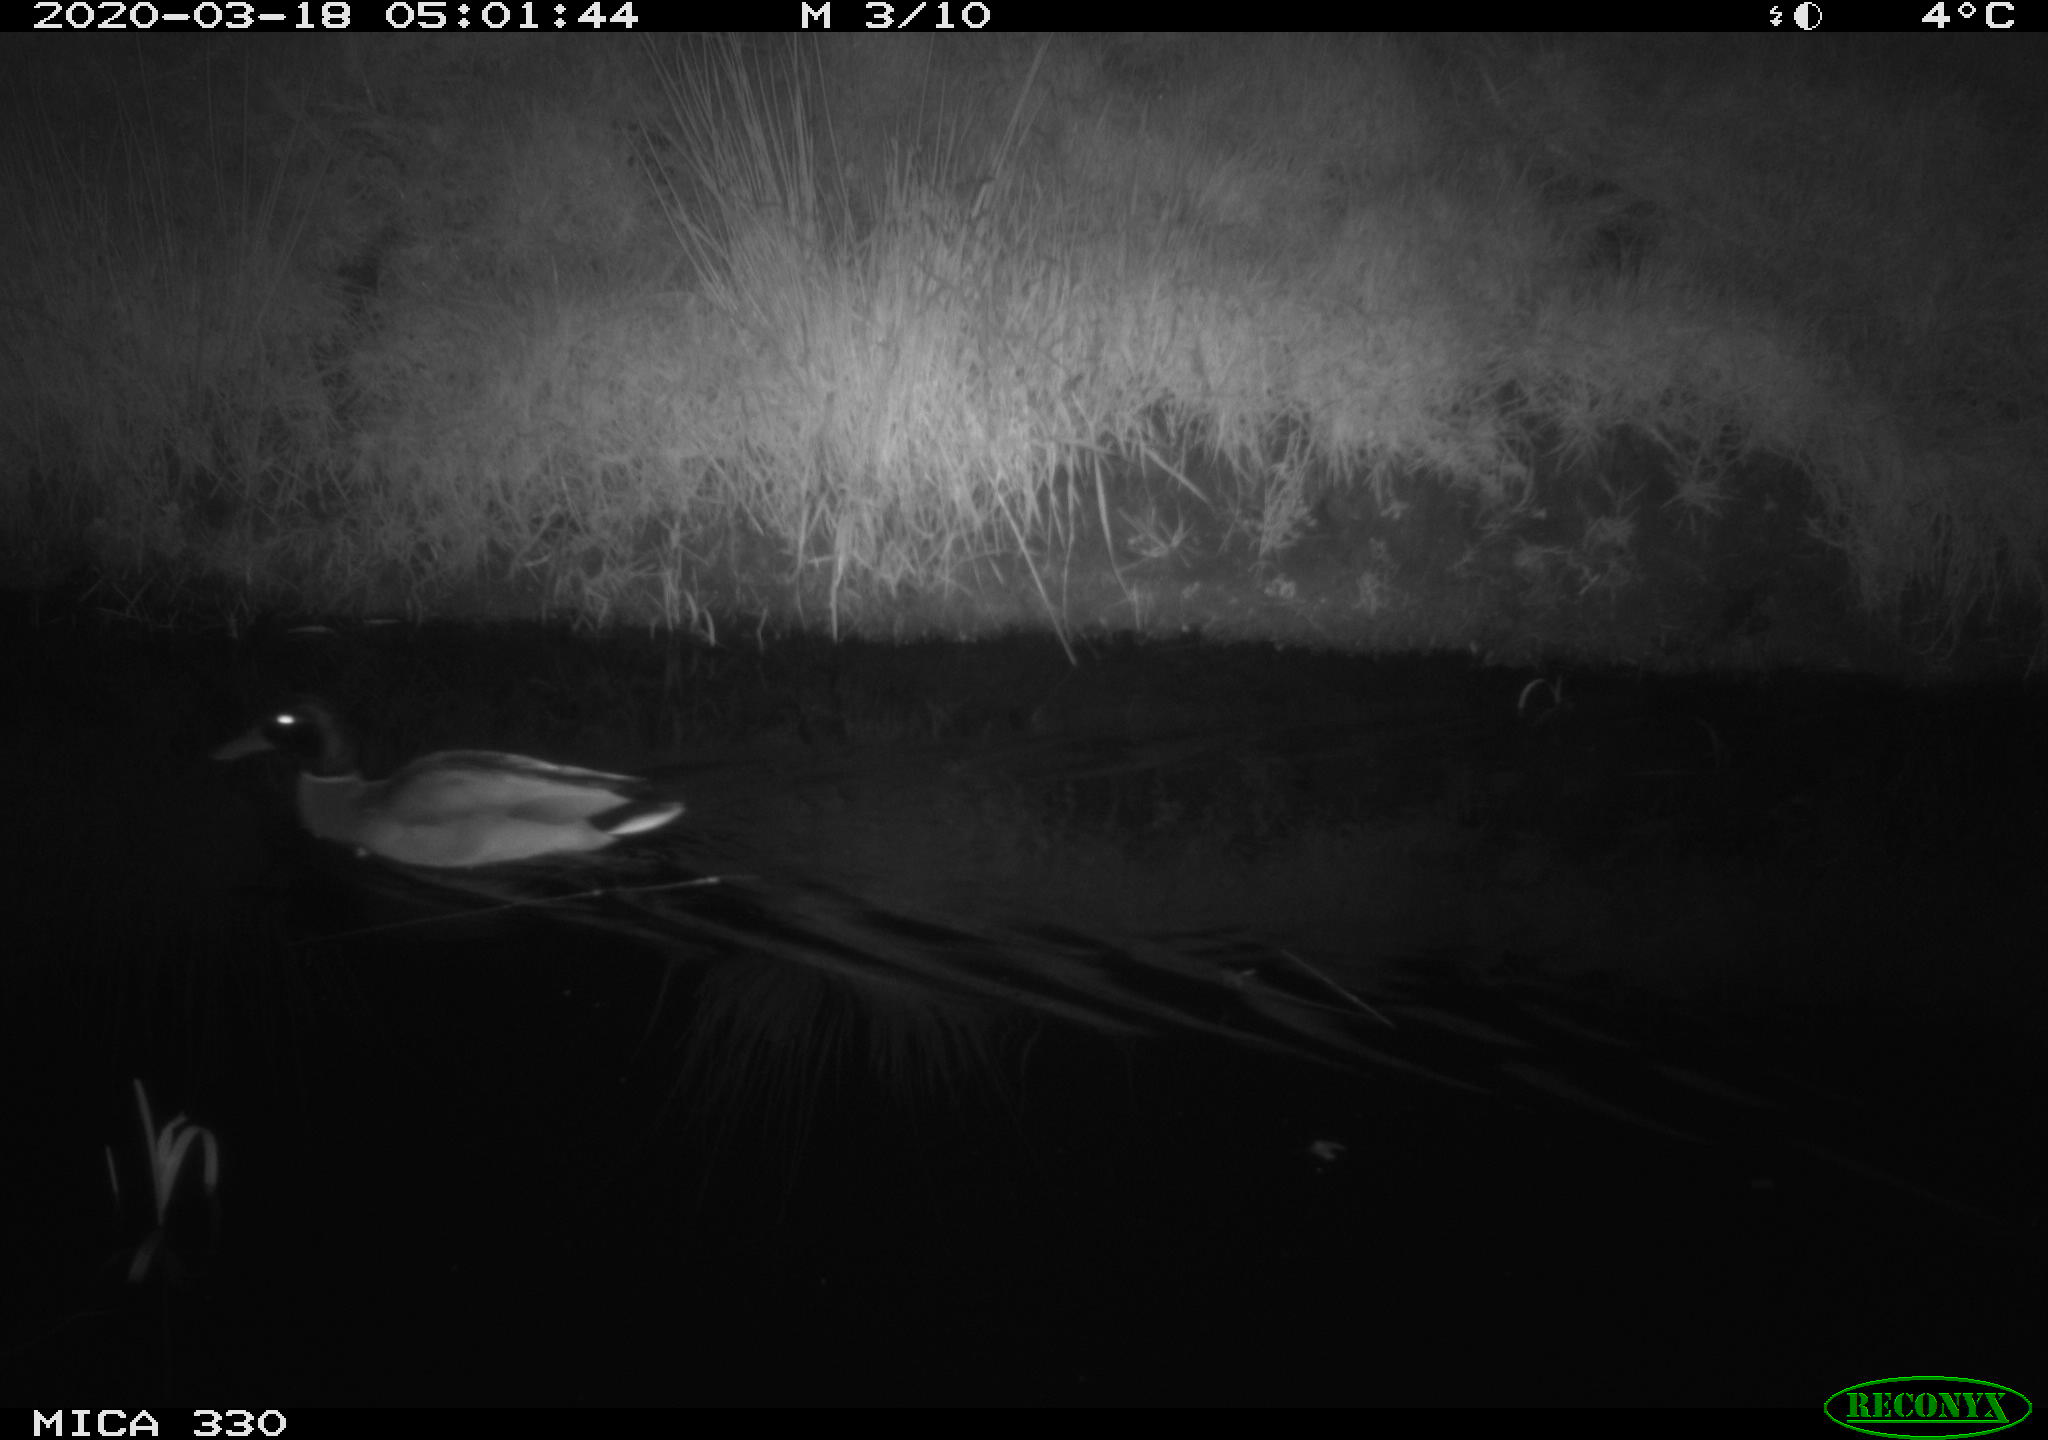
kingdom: Animalia
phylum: Chordata
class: Aves
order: Anseriformes
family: Anatidae
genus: Anas
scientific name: Anas platyrhynchos
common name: Mallard
